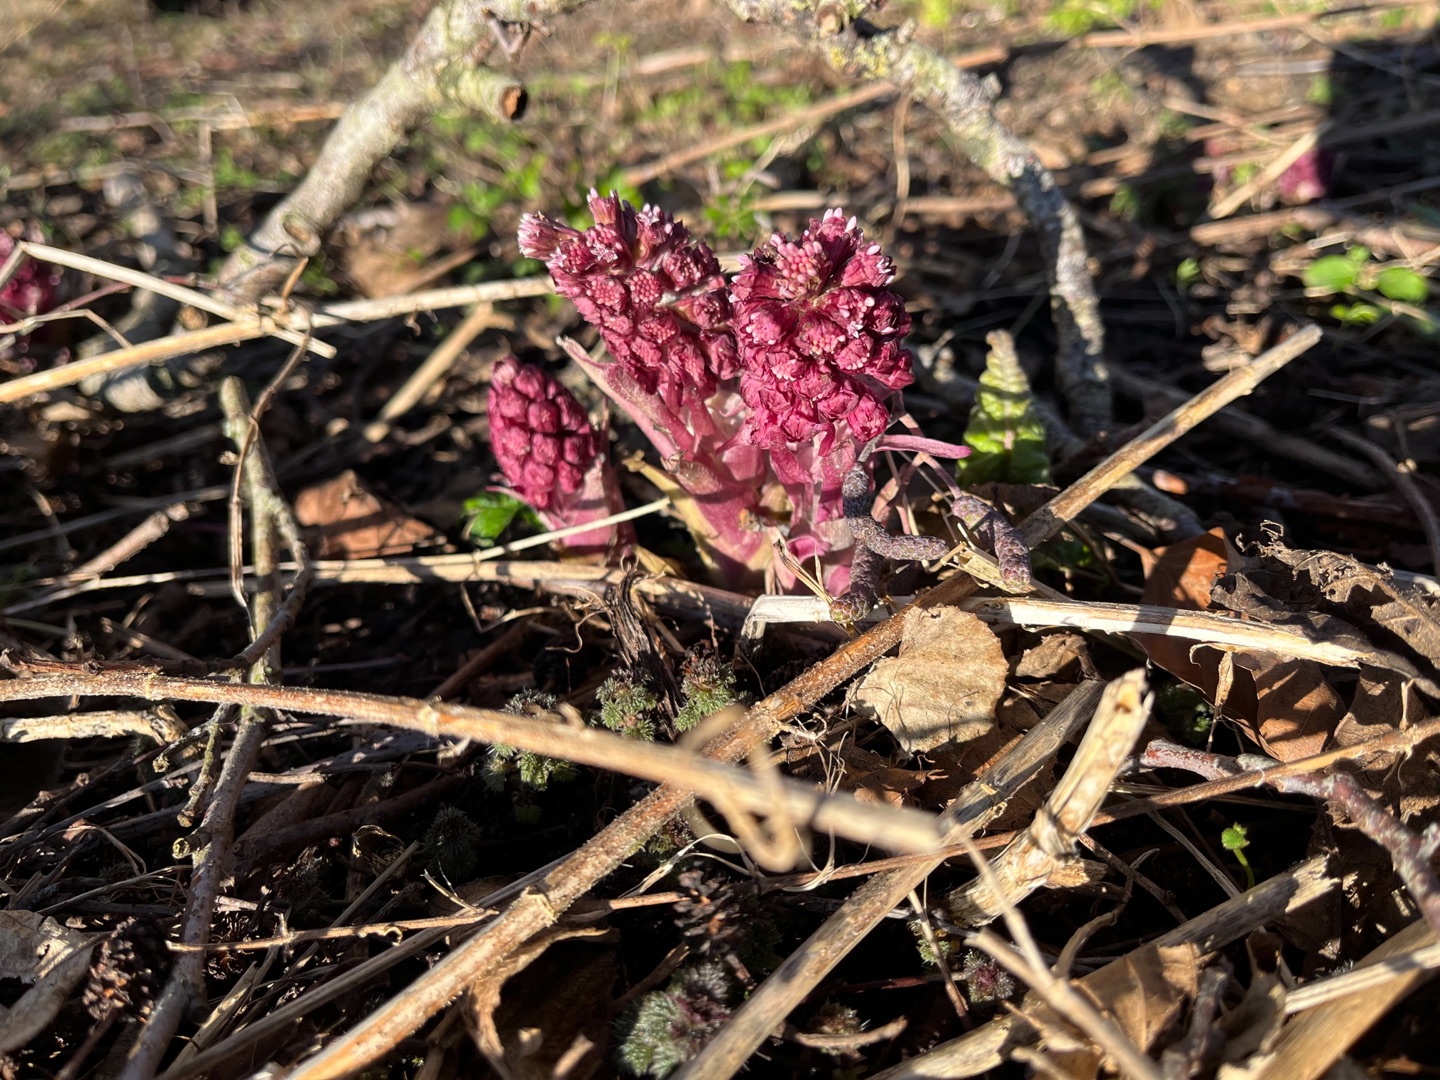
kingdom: Plantae
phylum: Tracheophyta
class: Magnoliopsida
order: Asterales
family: Asteraceae
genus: Petasites
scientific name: Petasites hybridus
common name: Rød hestehov
